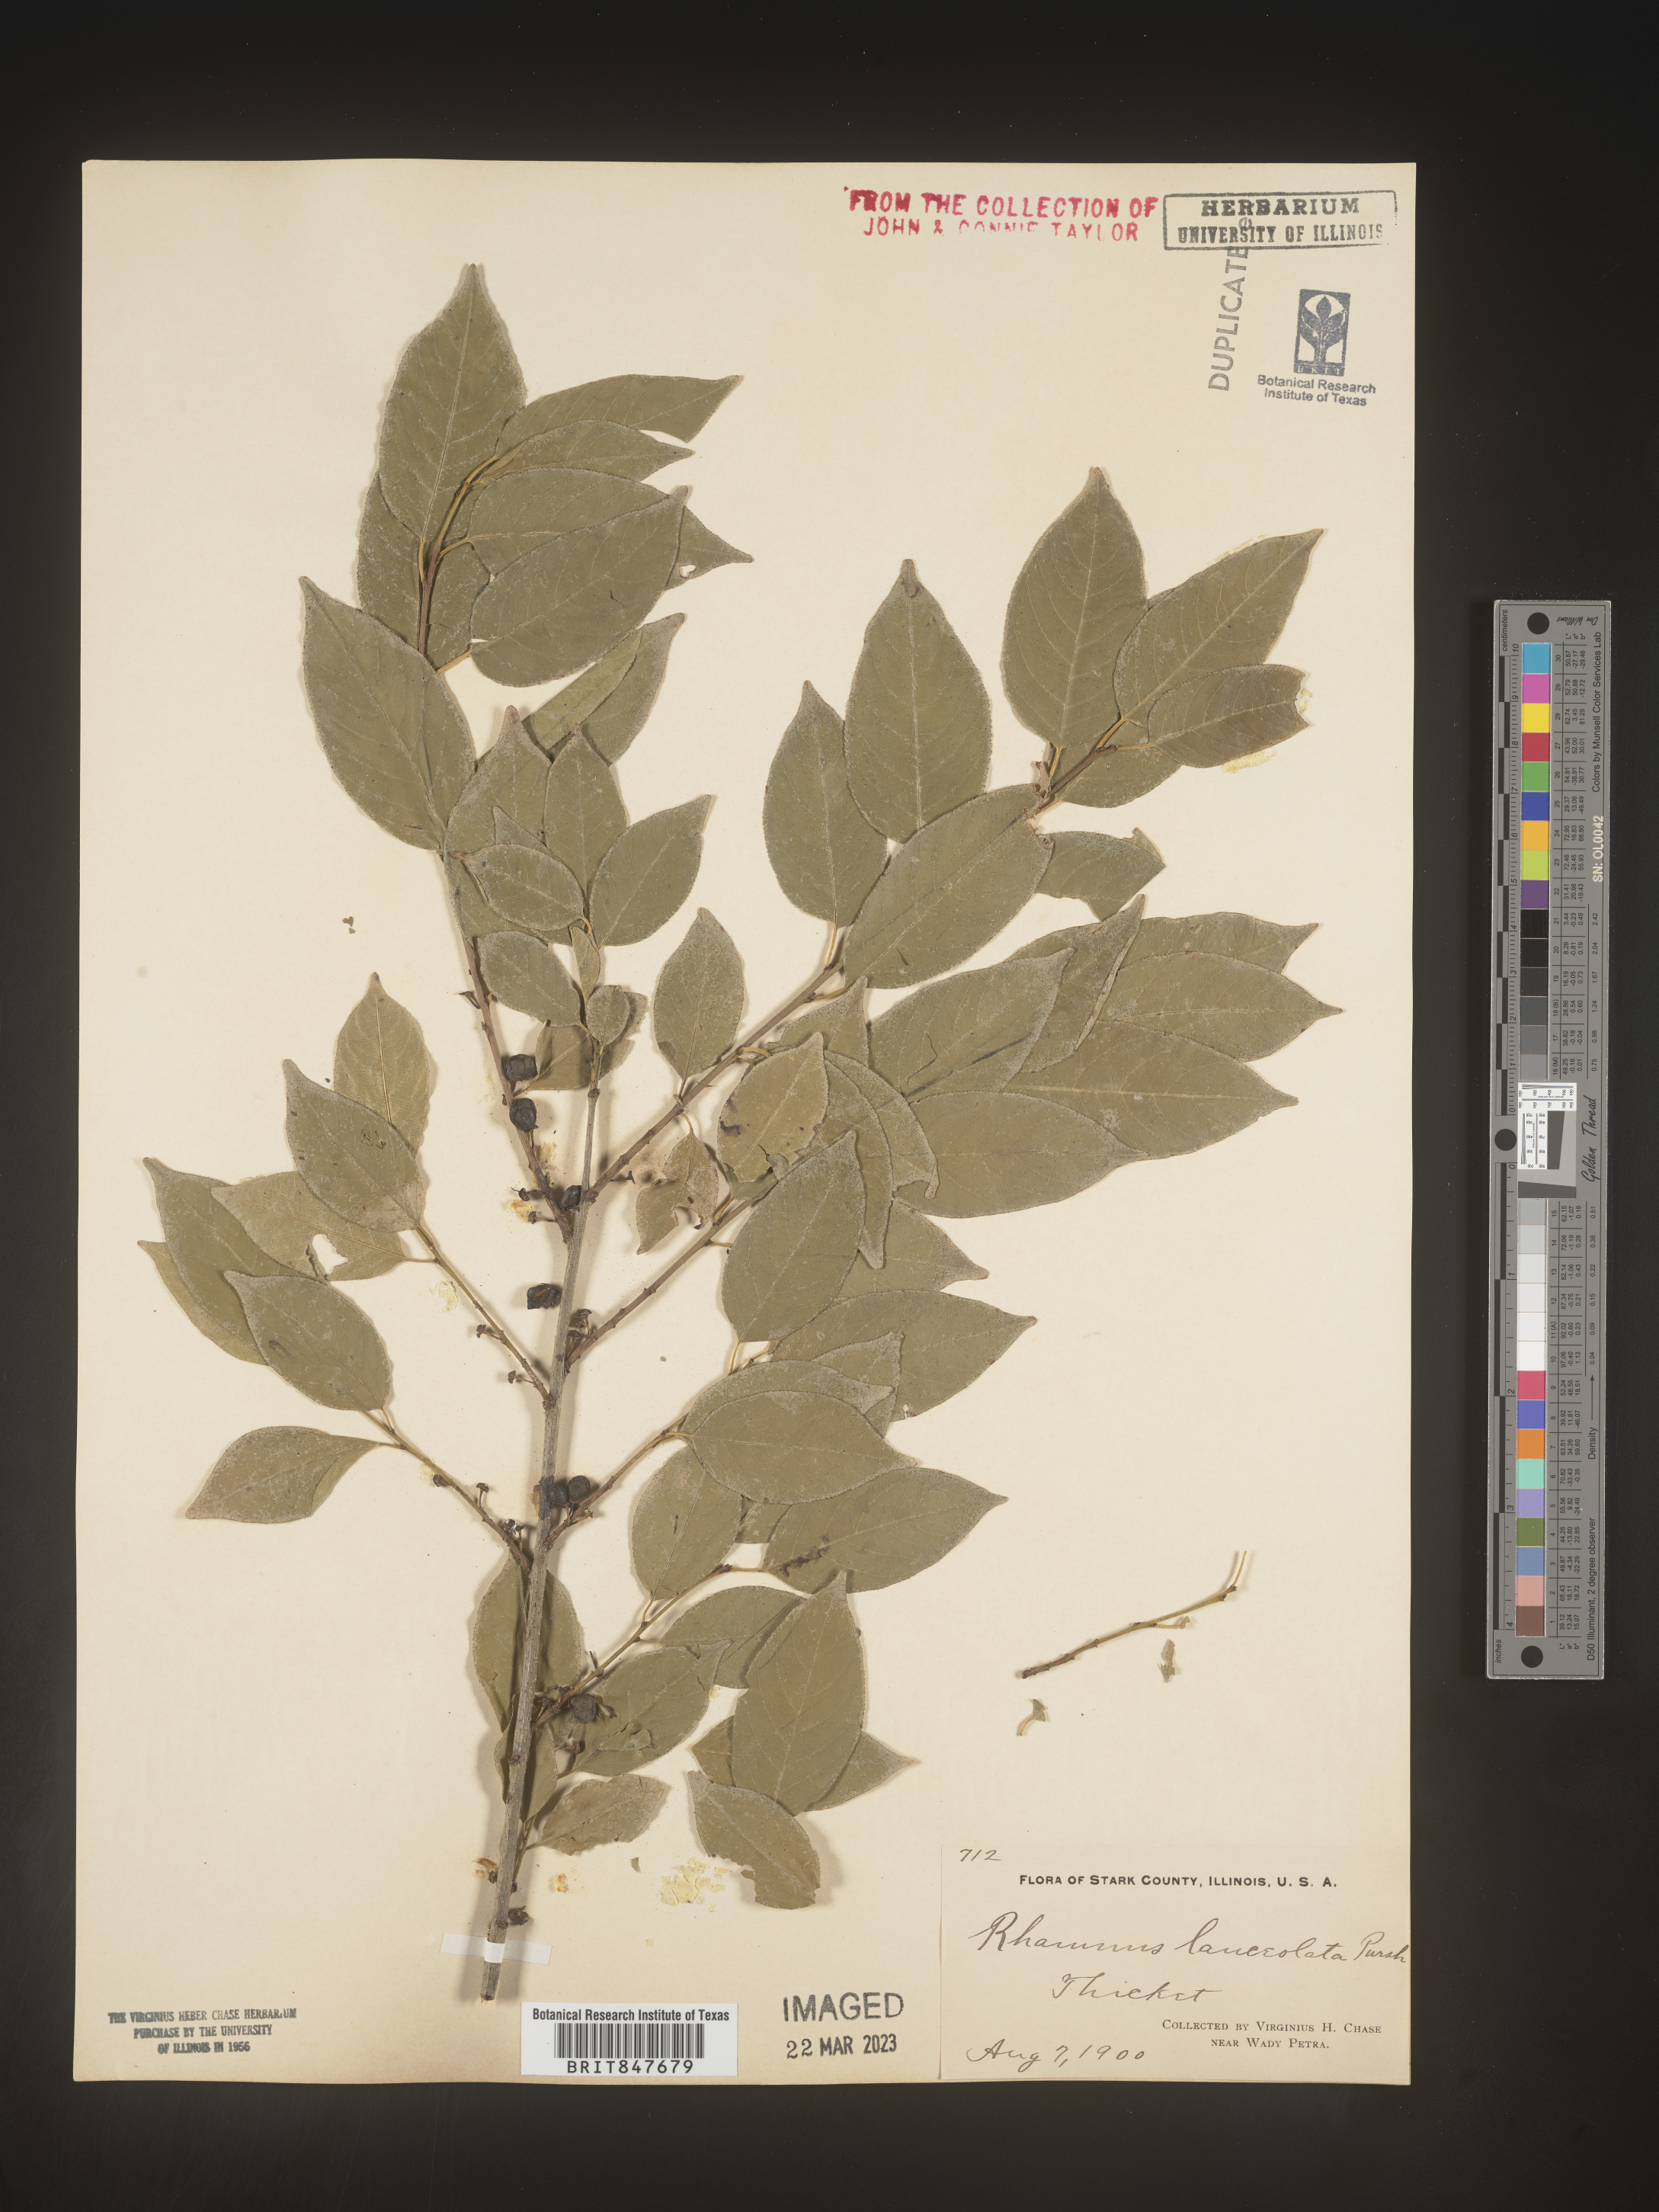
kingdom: Plantae
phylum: Tracheophyta
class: Magnoliopsida
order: Rosales
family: Rhamnaceae
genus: Endotropis
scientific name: Endotropis lanceolata
